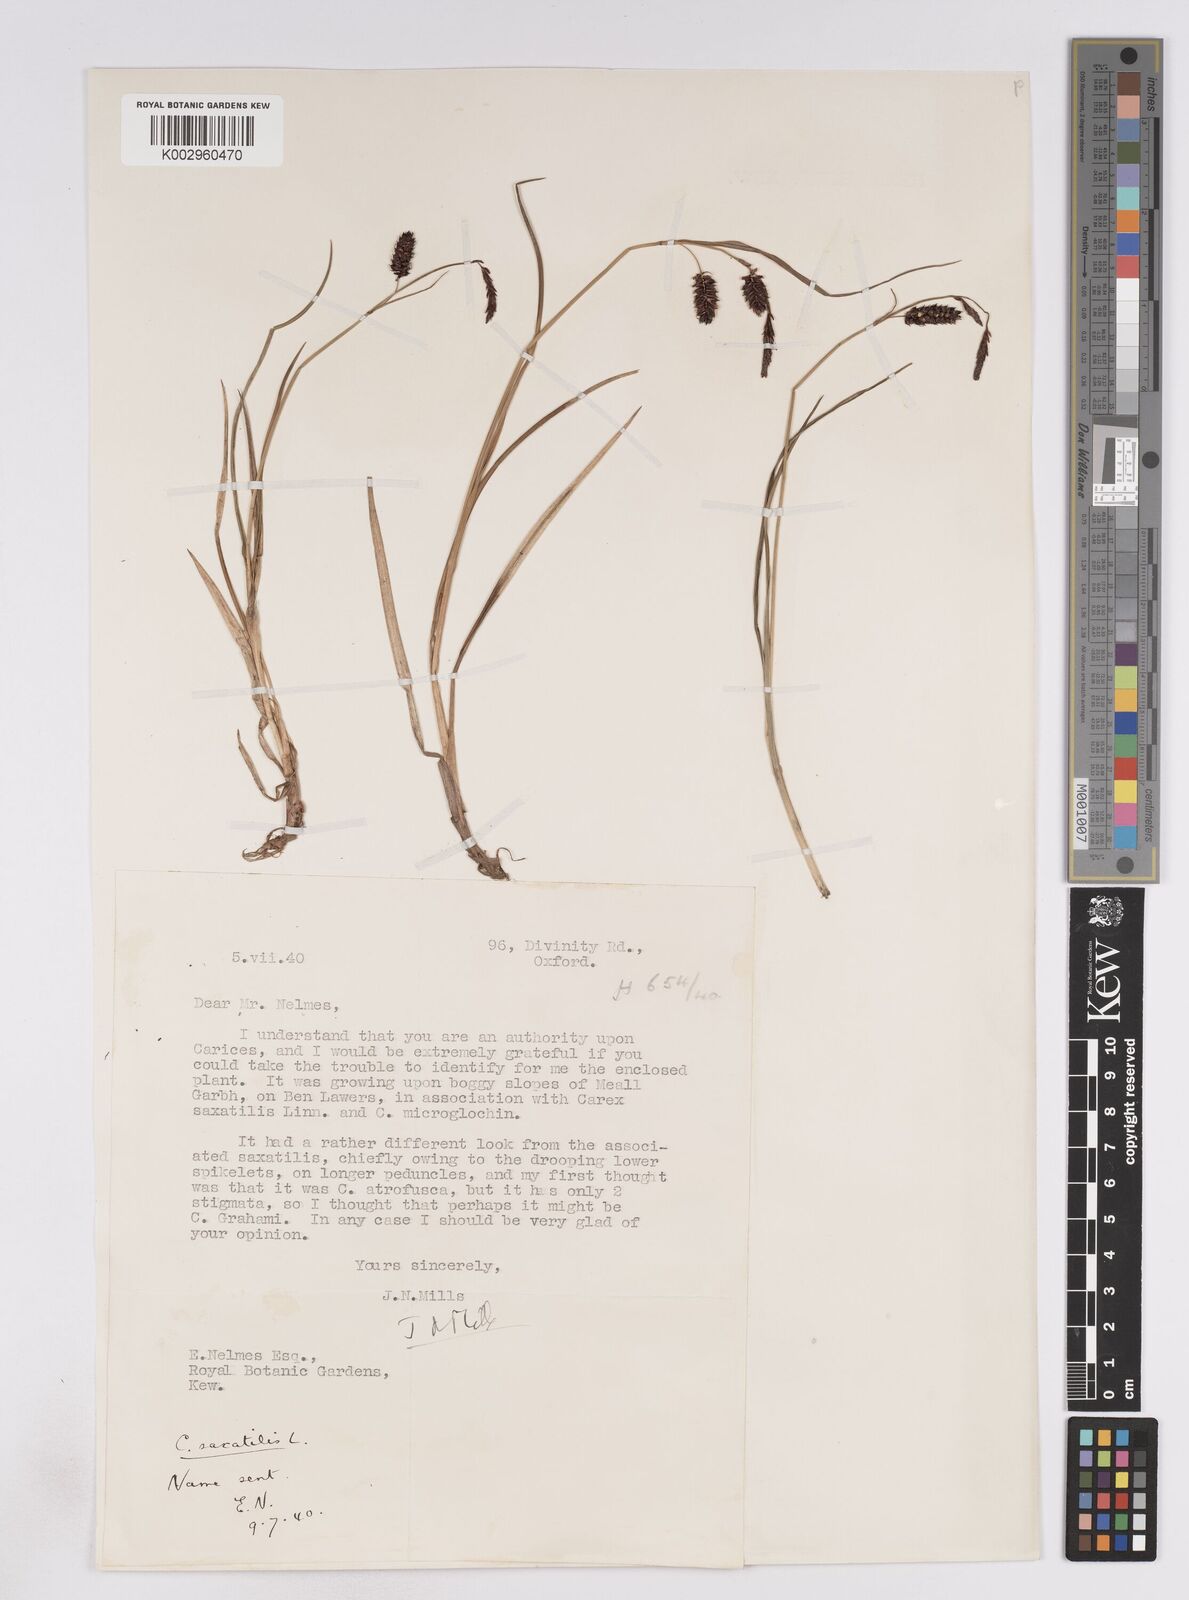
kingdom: Plantae
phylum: Tracheophyta
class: Liliopsida
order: Poales
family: Cyperaceae
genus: Carex
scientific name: Carex saxatilis
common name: Russet sedge
